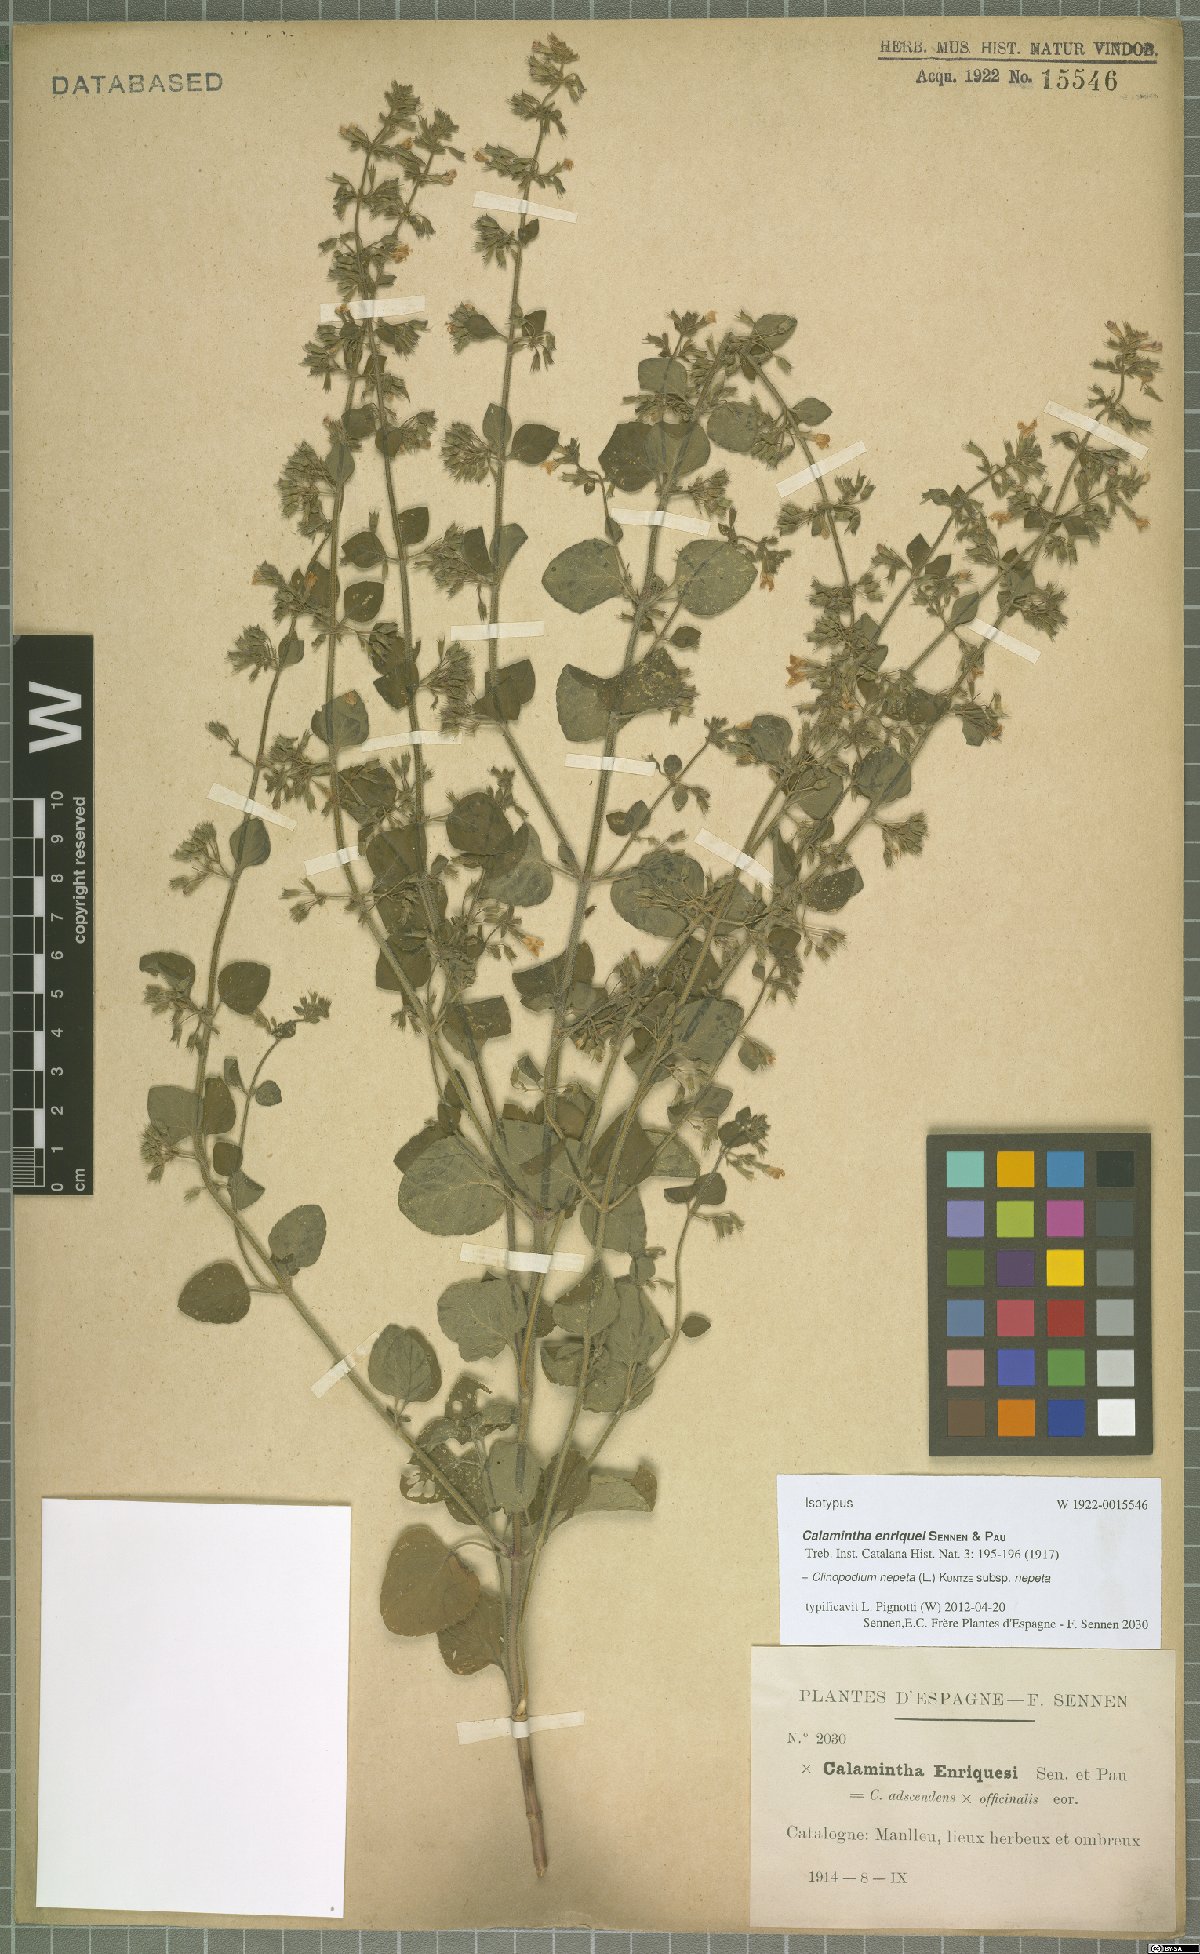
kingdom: Plantae
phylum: Tracheophyta
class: Magnoliopsida
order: Lamiales
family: Lamiaceae
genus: Clinopodium
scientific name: Clinopodium nepeta
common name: Lesser calamint
